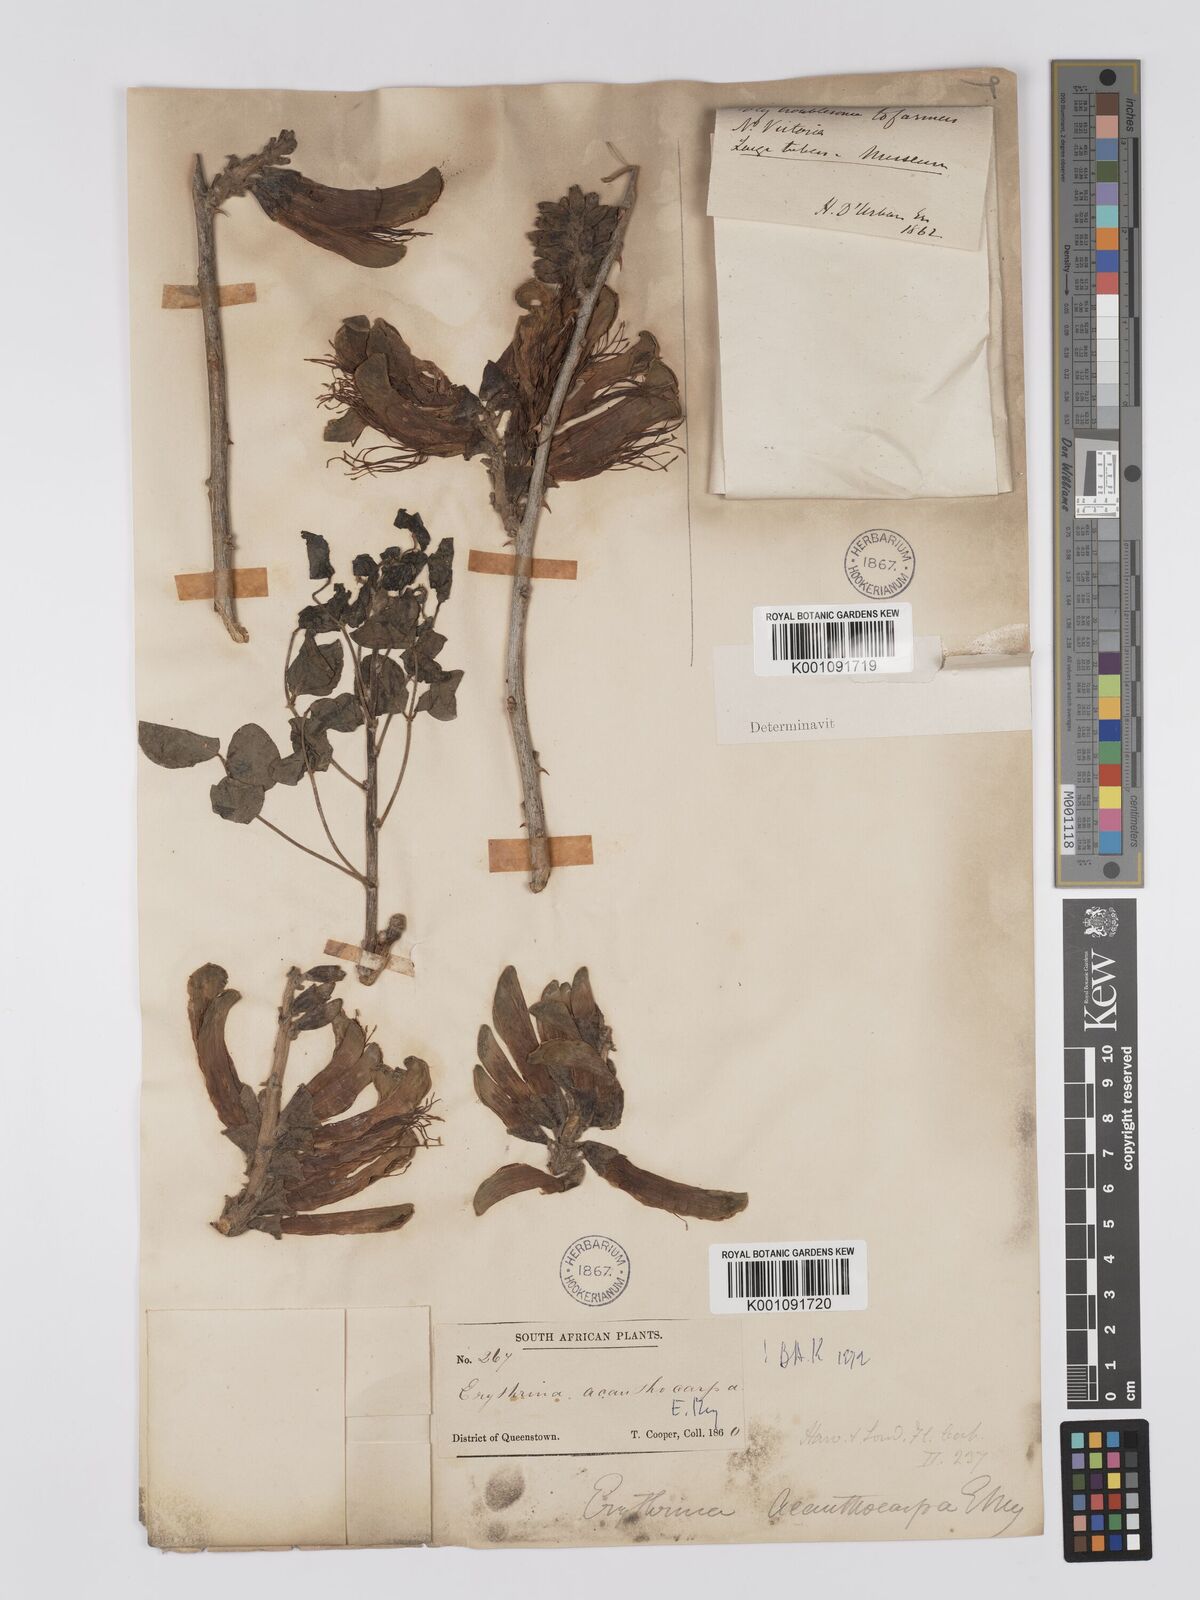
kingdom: Plantae
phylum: Tracheophyta
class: Magnoliopsida
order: Fabales
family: Fabaceae
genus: Erythrina
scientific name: Erythrina acanthocarpa
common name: Thorny coraltree
